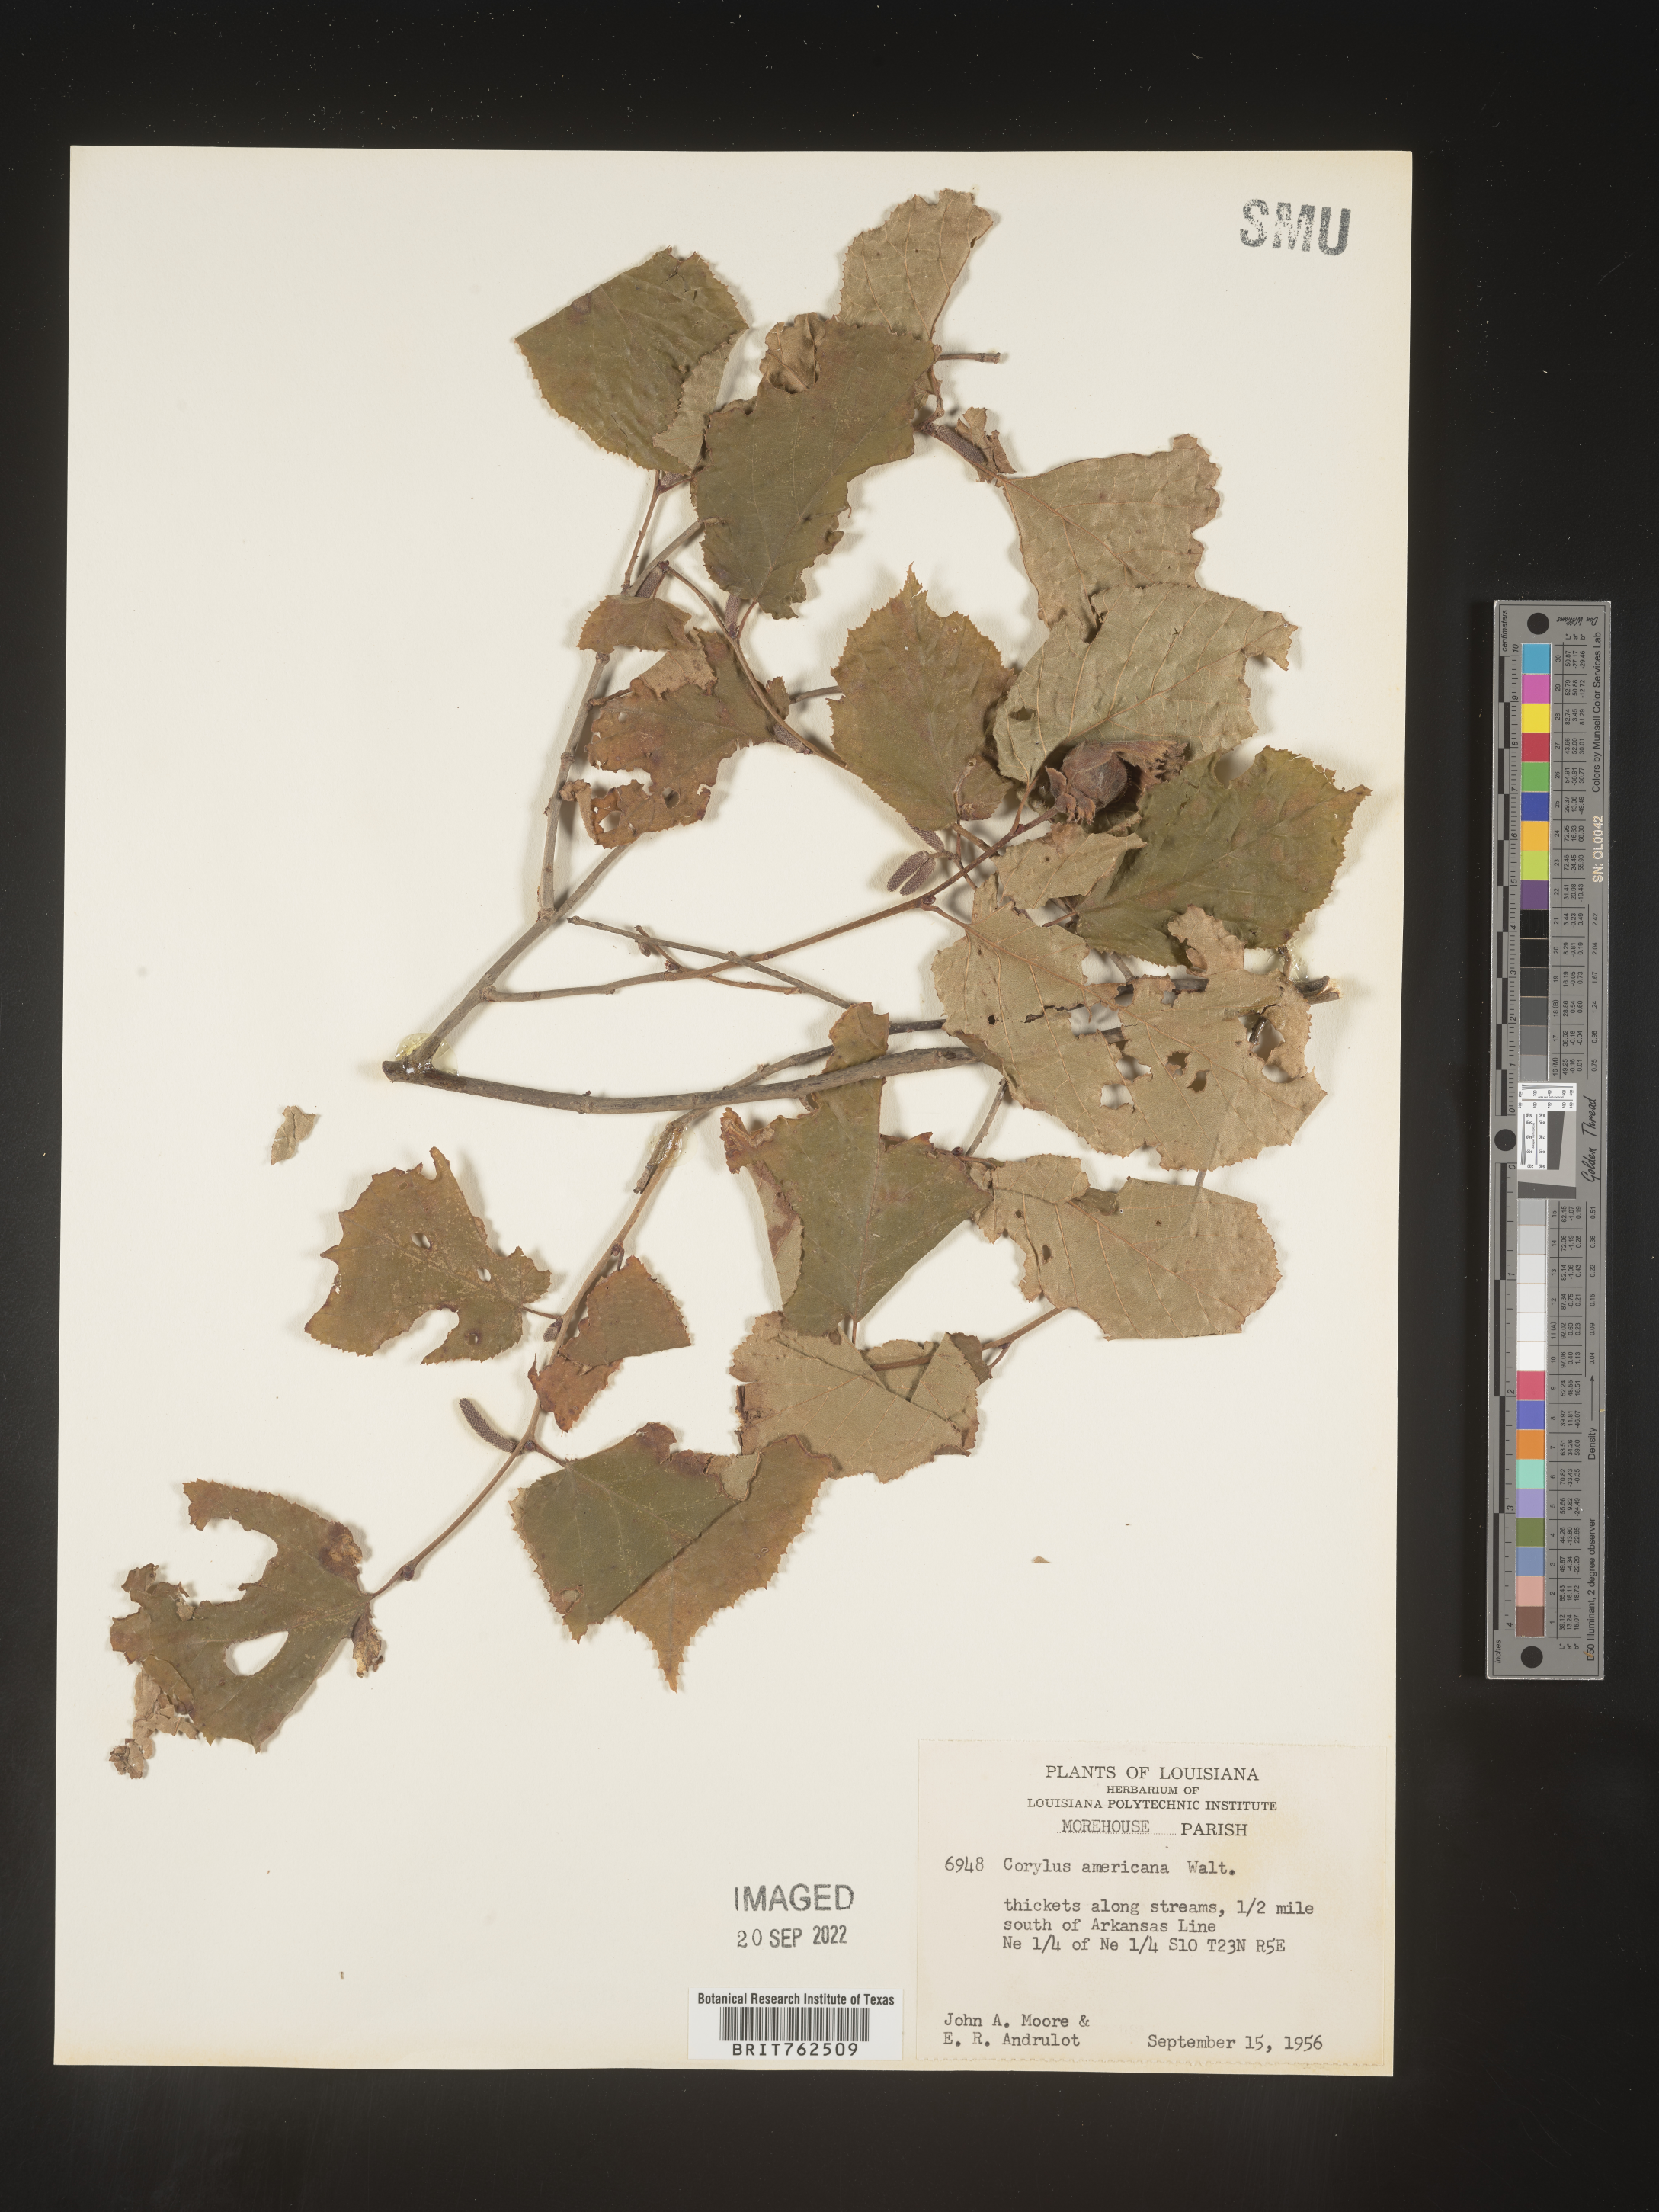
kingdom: Plantae
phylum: Tracheophyta
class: Magnoliopsida
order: Fagales
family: Betulaceae
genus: Corylus
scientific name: Corylus americana
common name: American hazel
